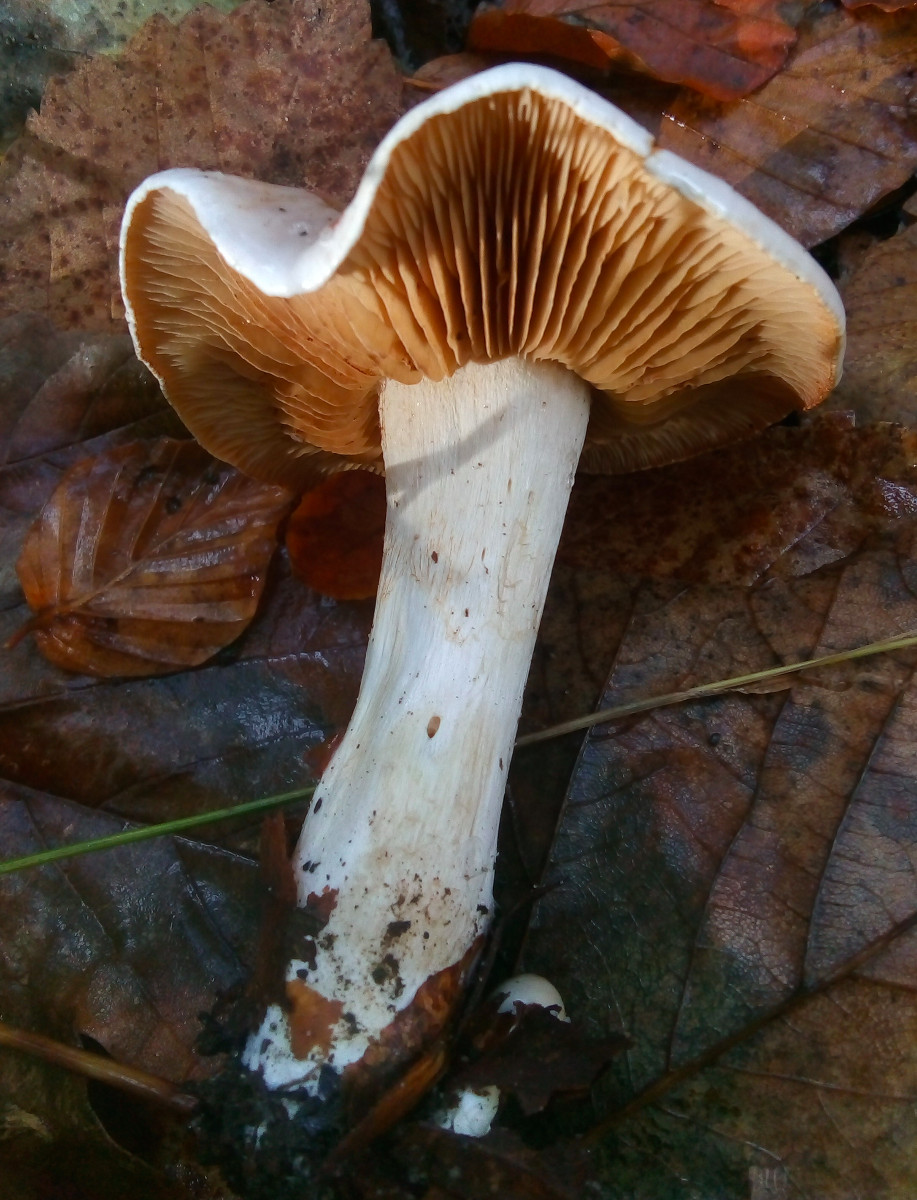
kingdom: Fungi
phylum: Basidiomycota
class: Agaricomycetes
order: Agaricales
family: Cortinariaceae
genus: Cortinarius
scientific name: Cortinarius
